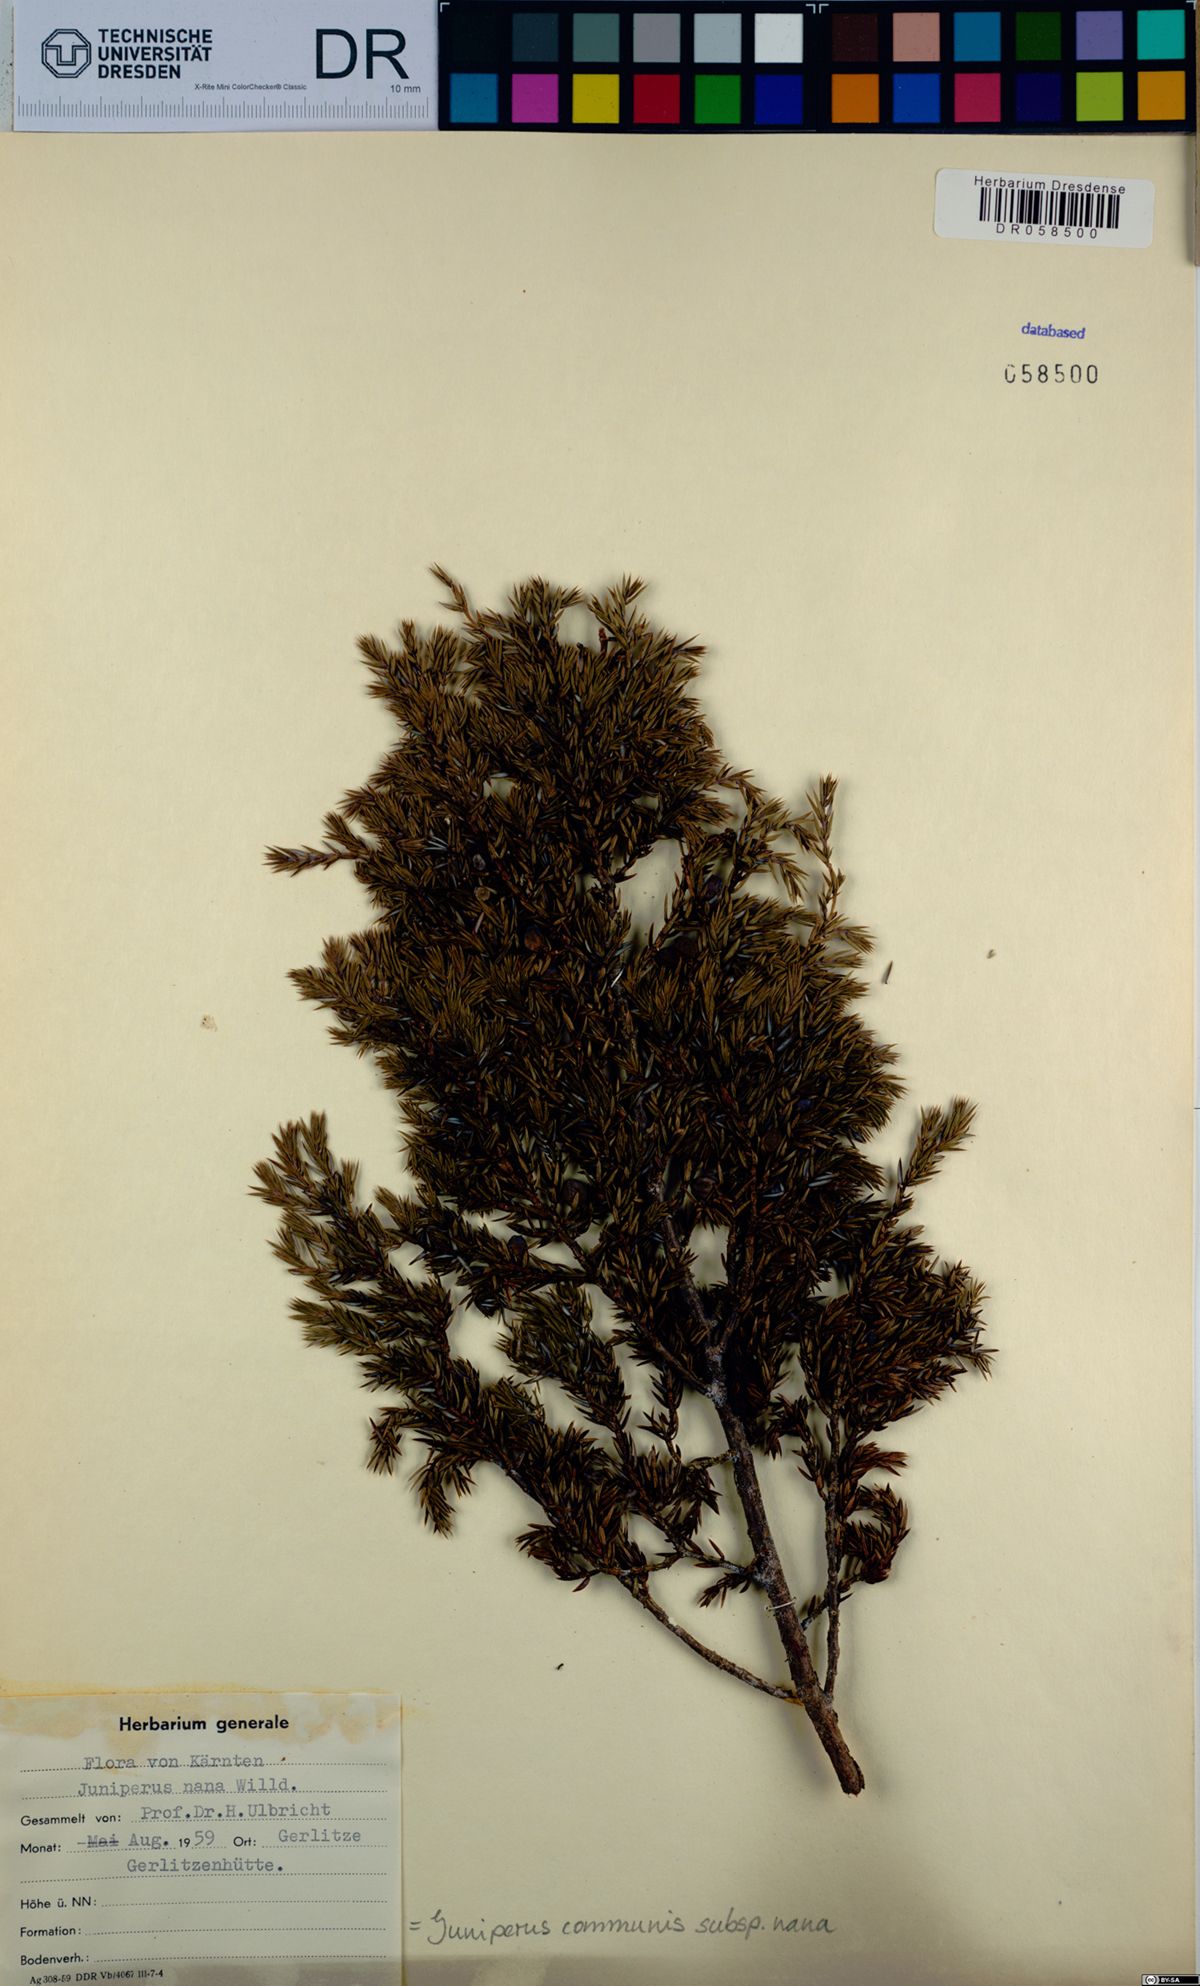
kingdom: Plantae
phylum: Tracheophyta
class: Pinopsida
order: Pinales
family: Cupressaceae
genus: Juniperus
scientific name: Juniperus communis
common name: Common juniper
